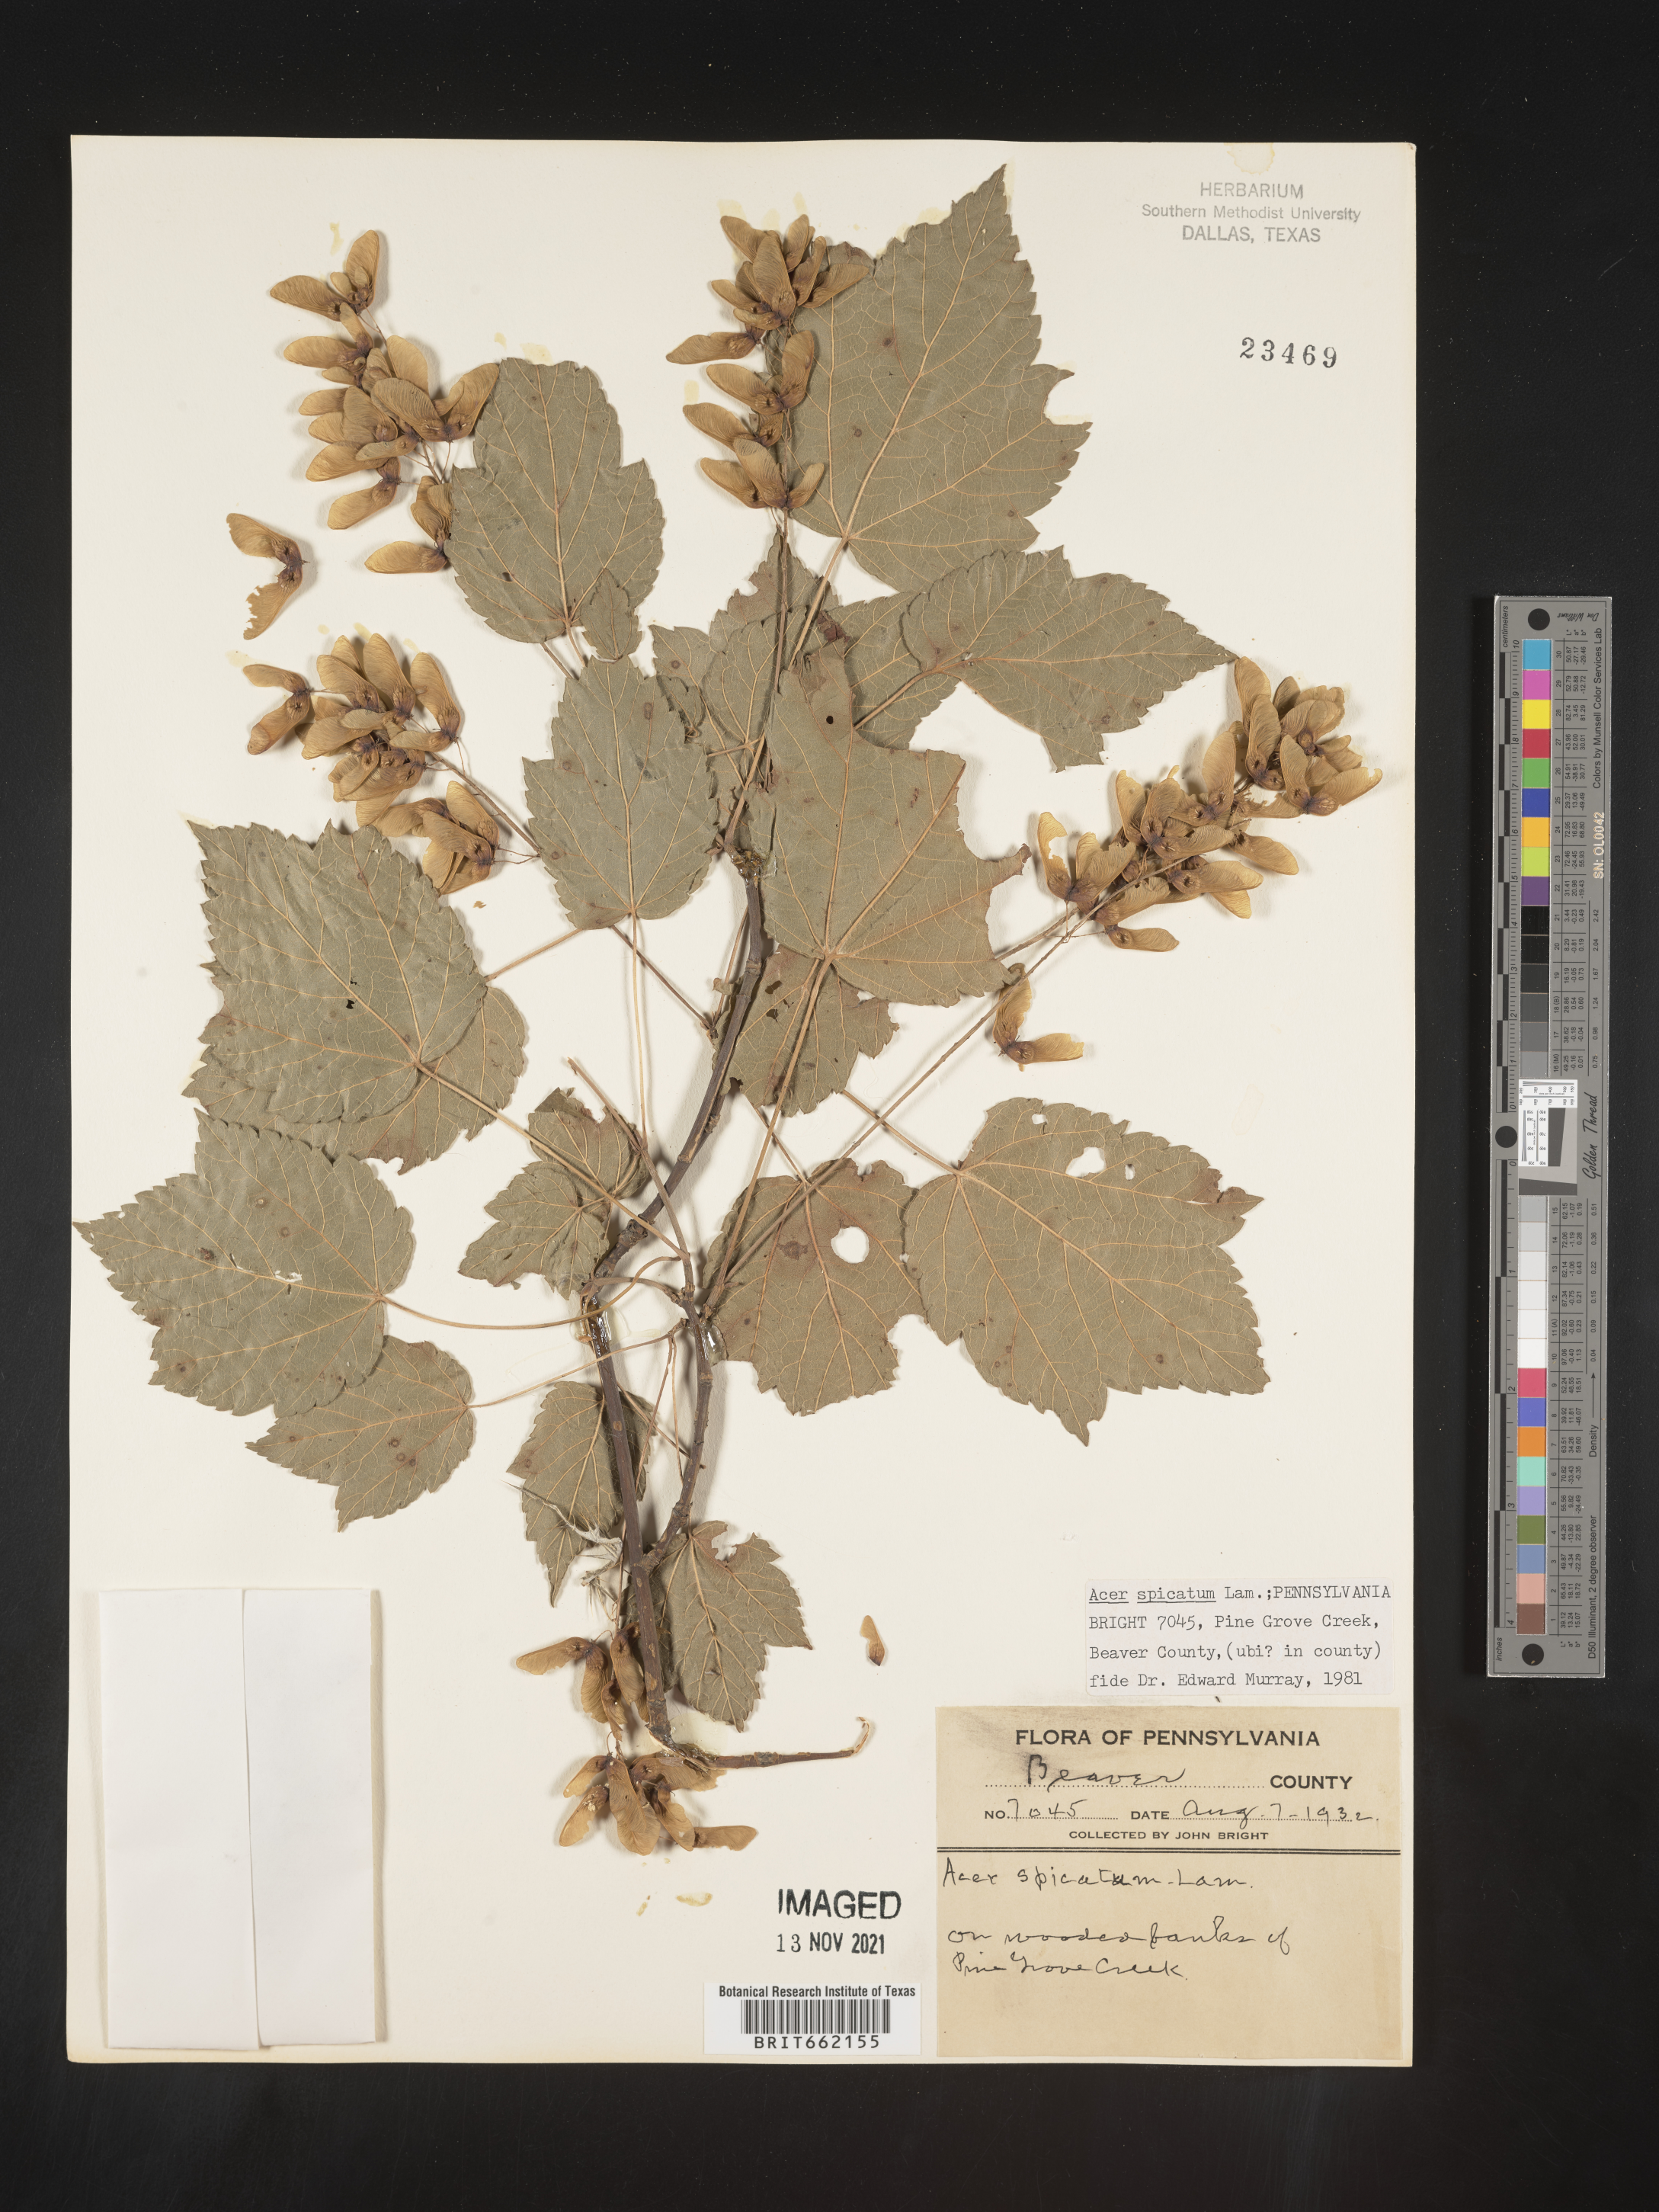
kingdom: Plantae
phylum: Tracheophyta
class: Magnoliopsida
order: Sapindales
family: Sapindaceae
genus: Acer
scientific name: Acer spicatum
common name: Mountain maple
